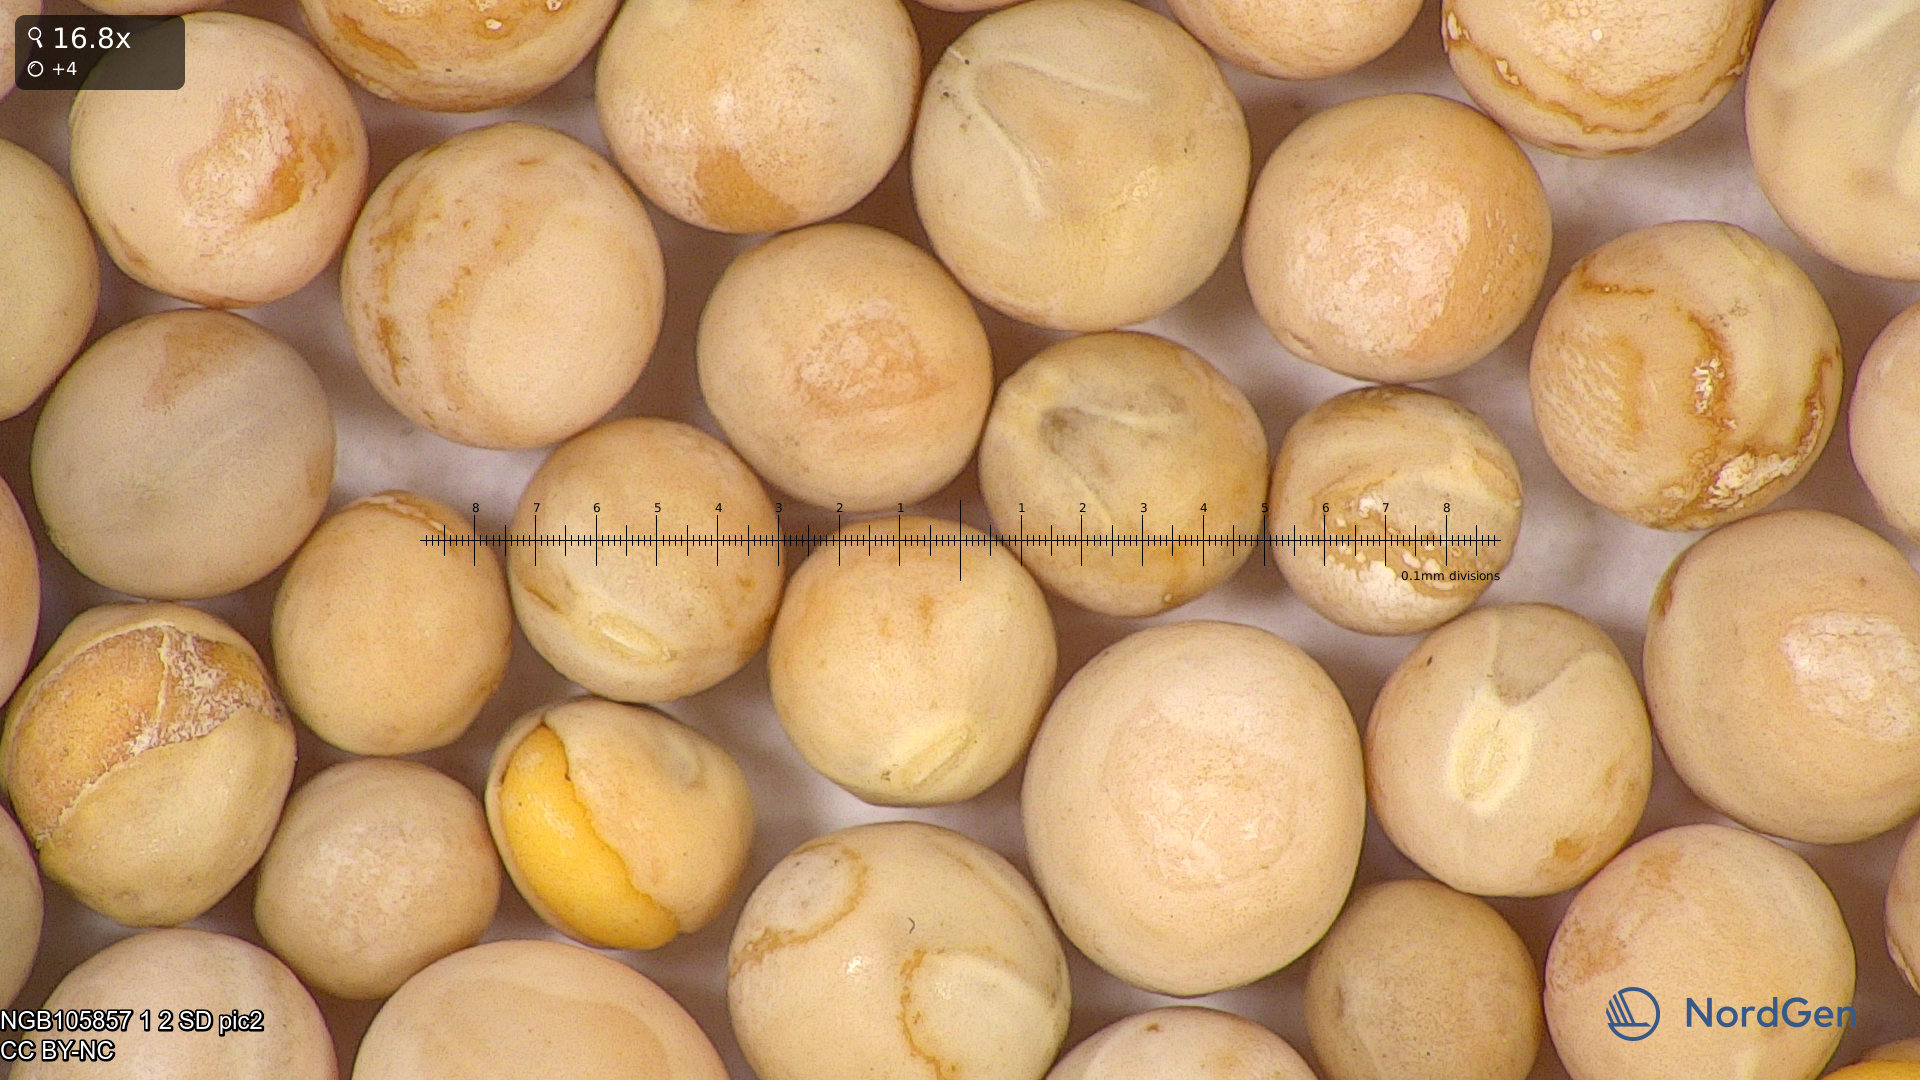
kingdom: Plantae
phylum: Tracheophyta
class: Magnoliopsida
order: Fabales
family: Fabaceae
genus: Lathyrus
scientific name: Lathyrus oleraceus
